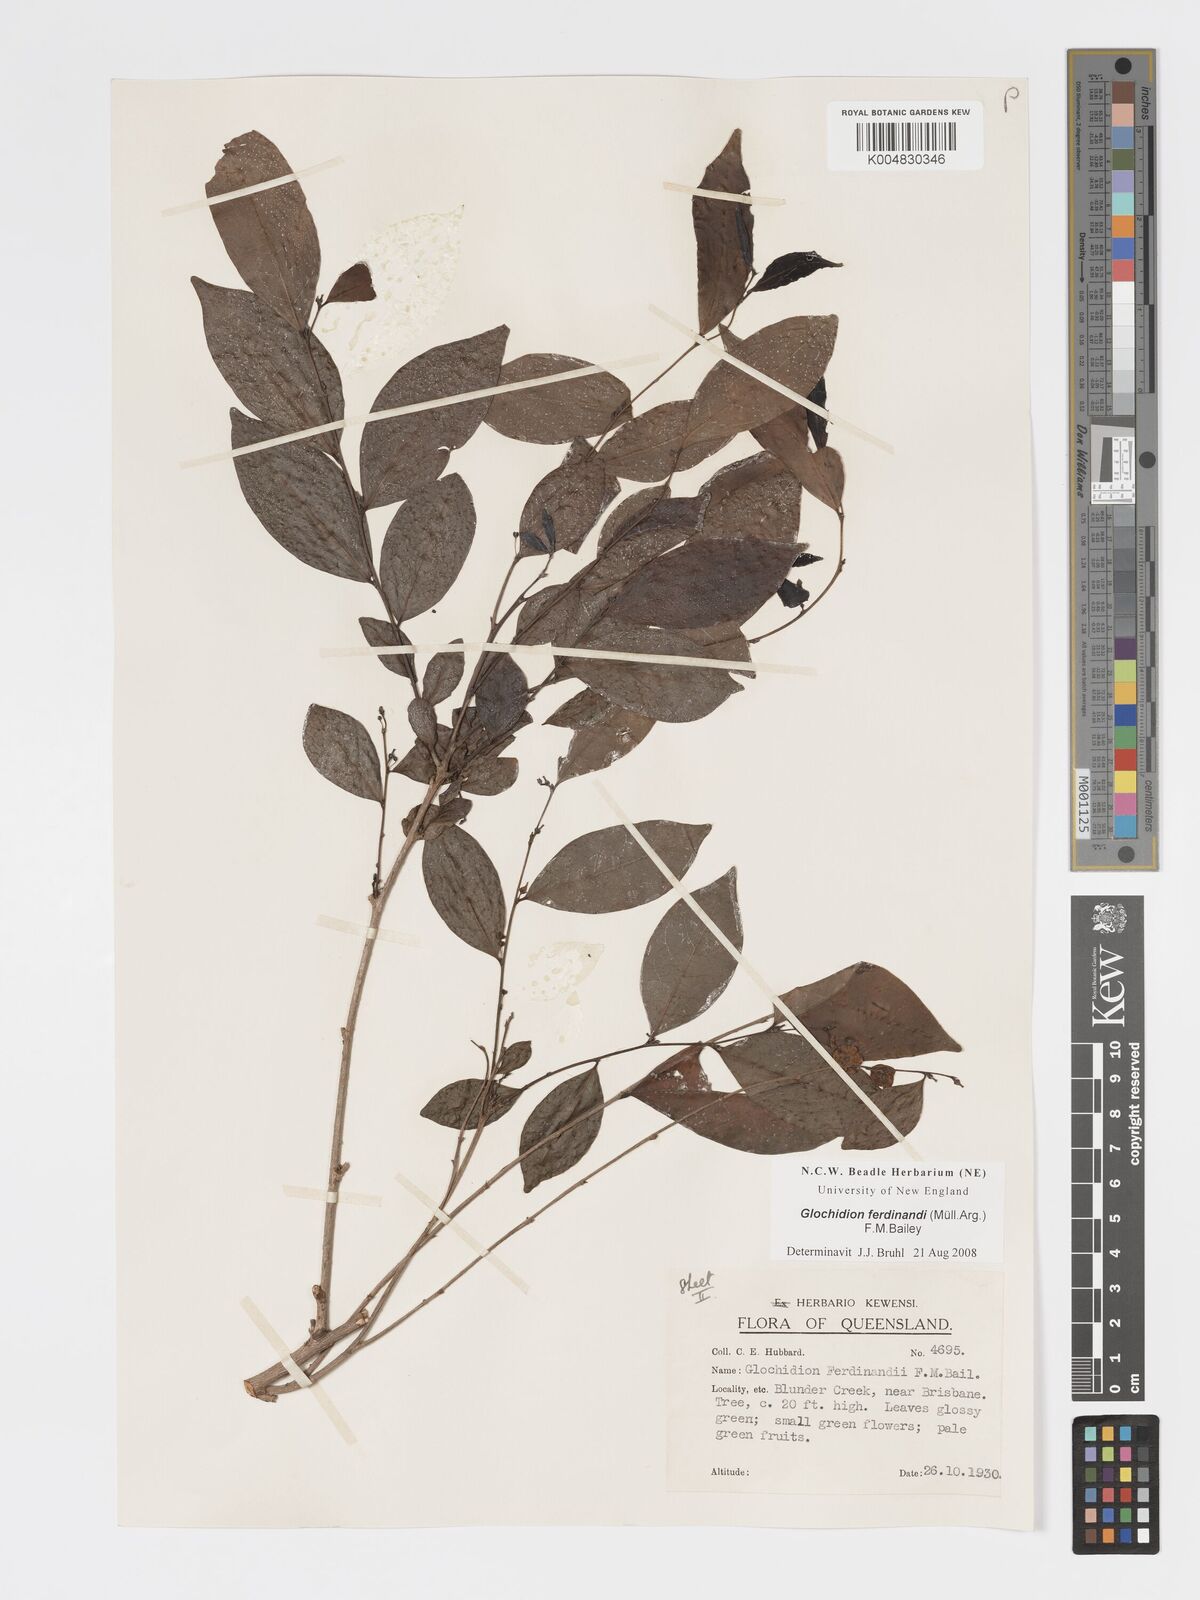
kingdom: Plantae
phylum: Tracheophyta
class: Magnoliopsida
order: Malpighiales
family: Phyllanthaceae
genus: Glochidion
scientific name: Glochidion ferdinandi
